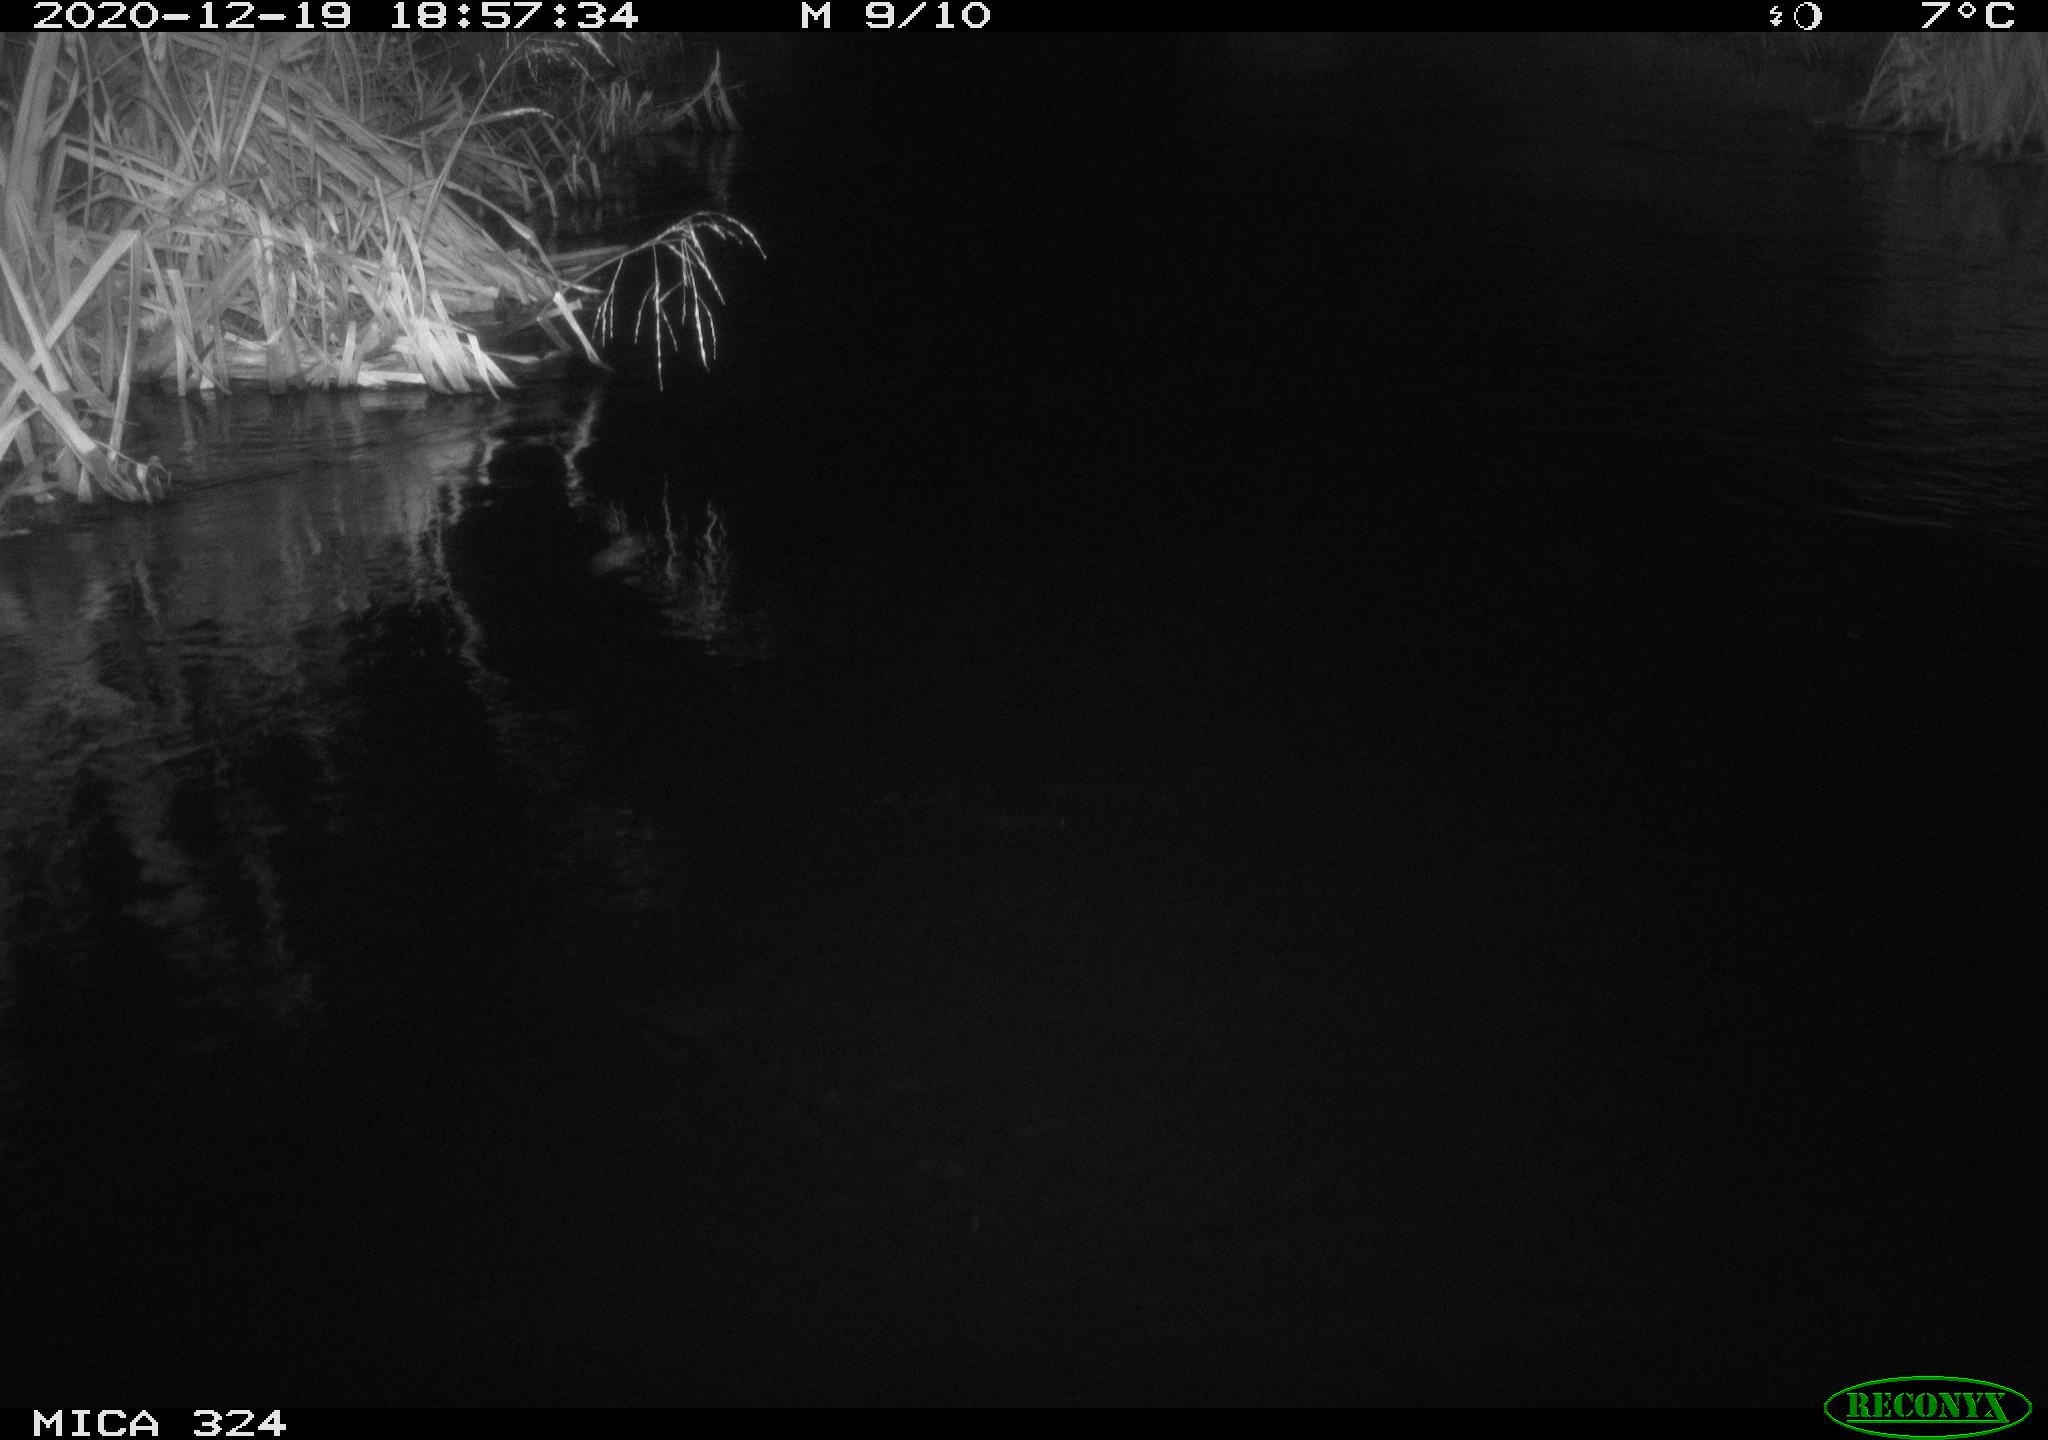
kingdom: Animalia
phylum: Chordata
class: Mammalia
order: Rodentia
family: Cricetidae
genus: Ondatra
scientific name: Ondatra zibethicus
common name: Muskrat
